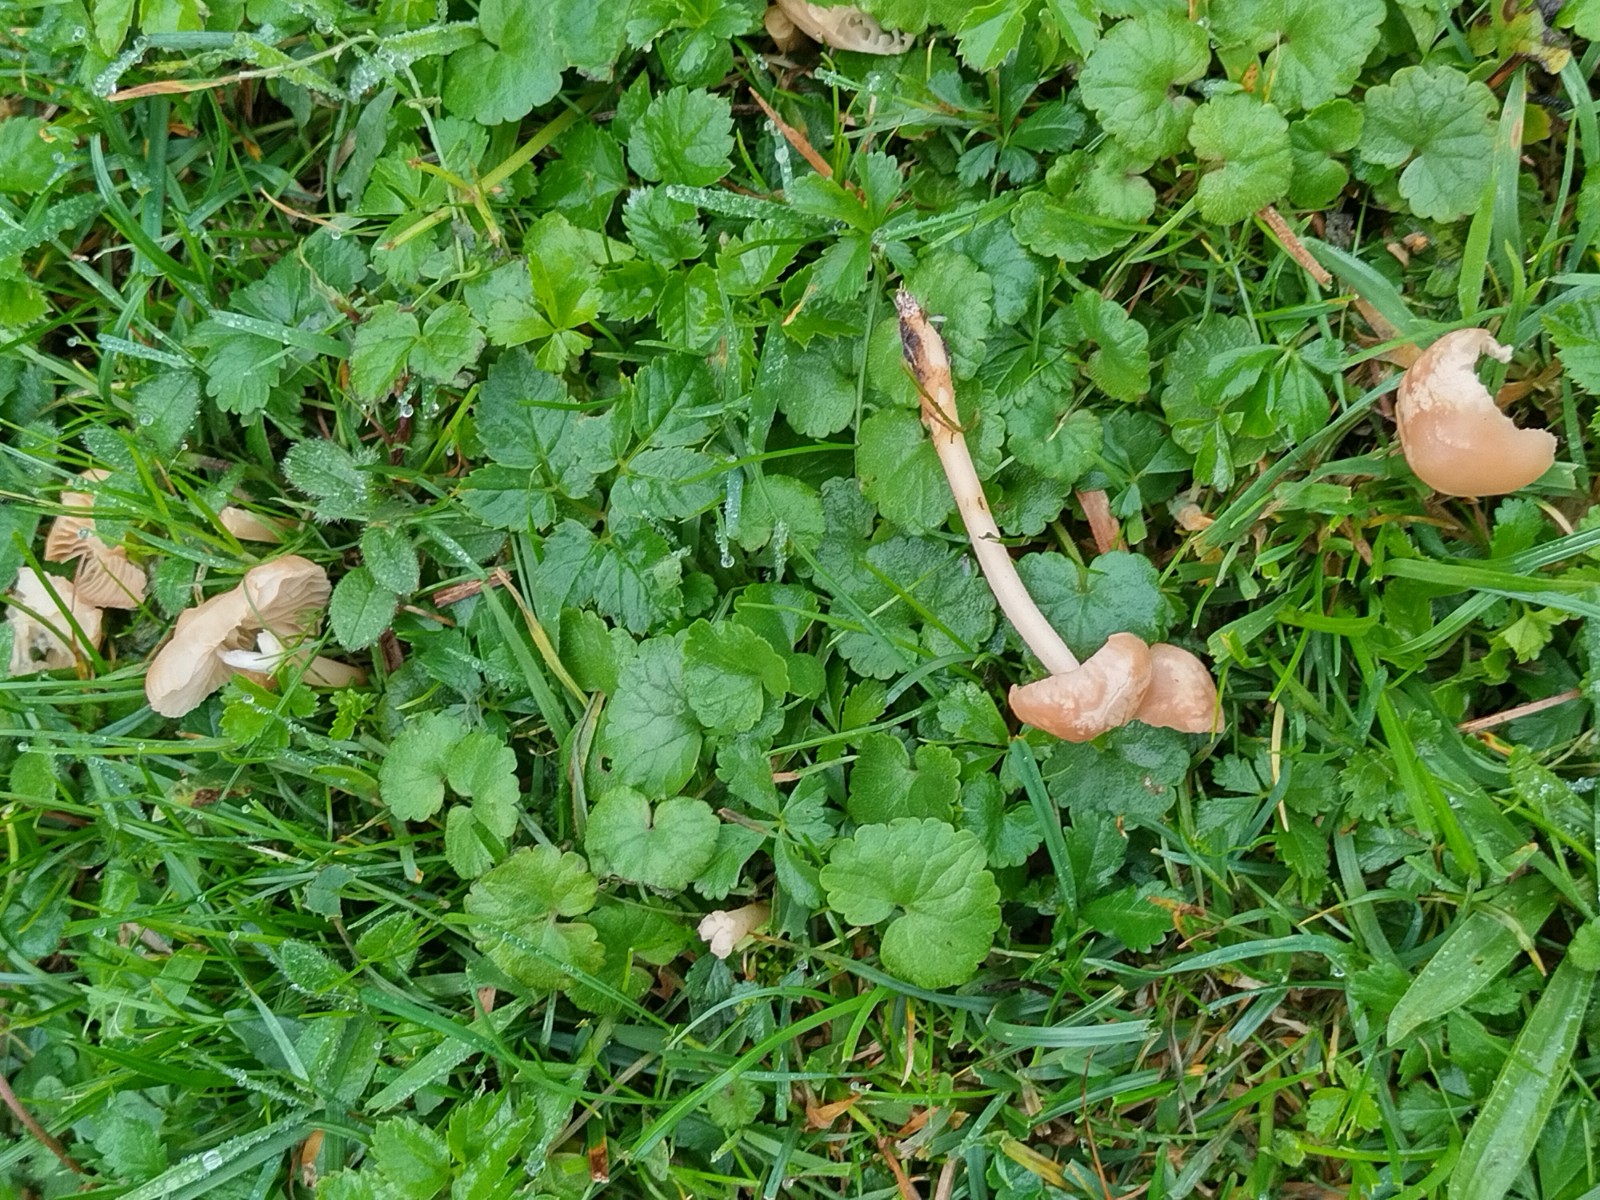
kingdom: Fungi
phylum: Basidiomycota
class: Agaricomycetes
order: Agaricales
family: Marasmiaceae
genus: Marasmius
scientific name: Marasmius oreades
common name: elledans-bruskhat
